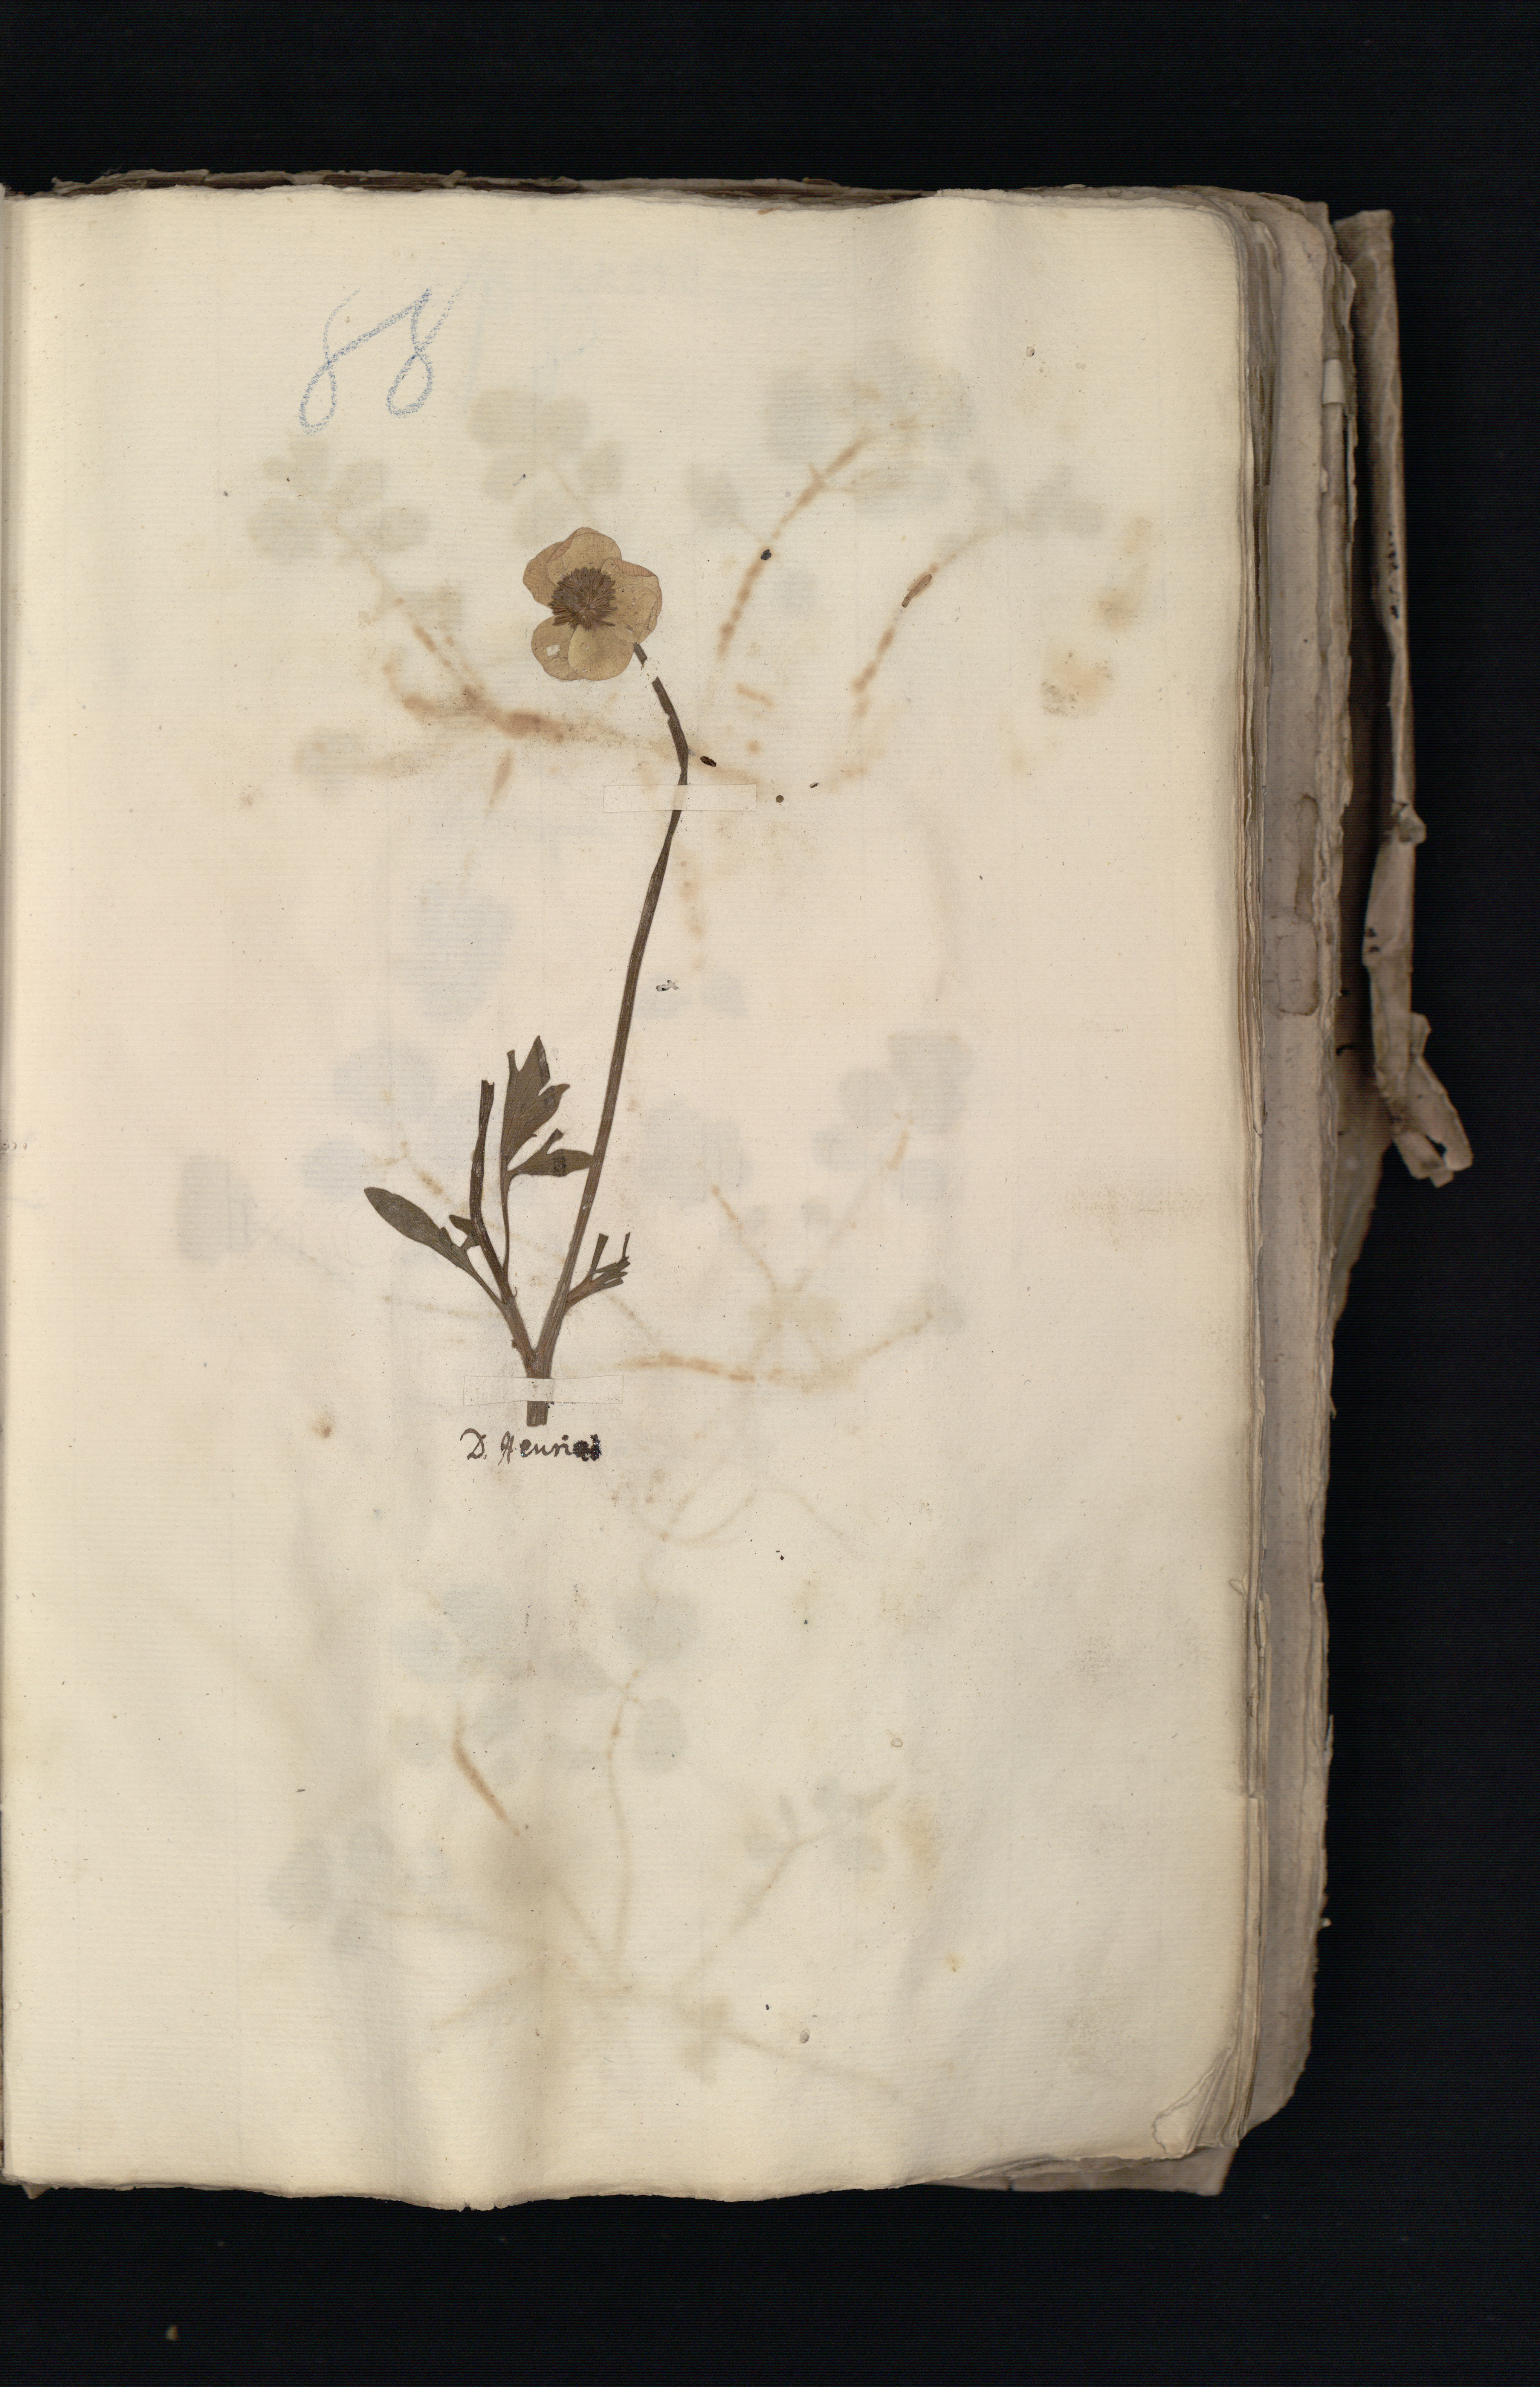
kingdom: Plantae
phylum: Tracheophyta
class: Magnoliopsida
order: Ranunculales
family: Ranunculaceae
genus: Ranunculus
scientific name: Ranunculus acris
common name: Meadow buttercup
